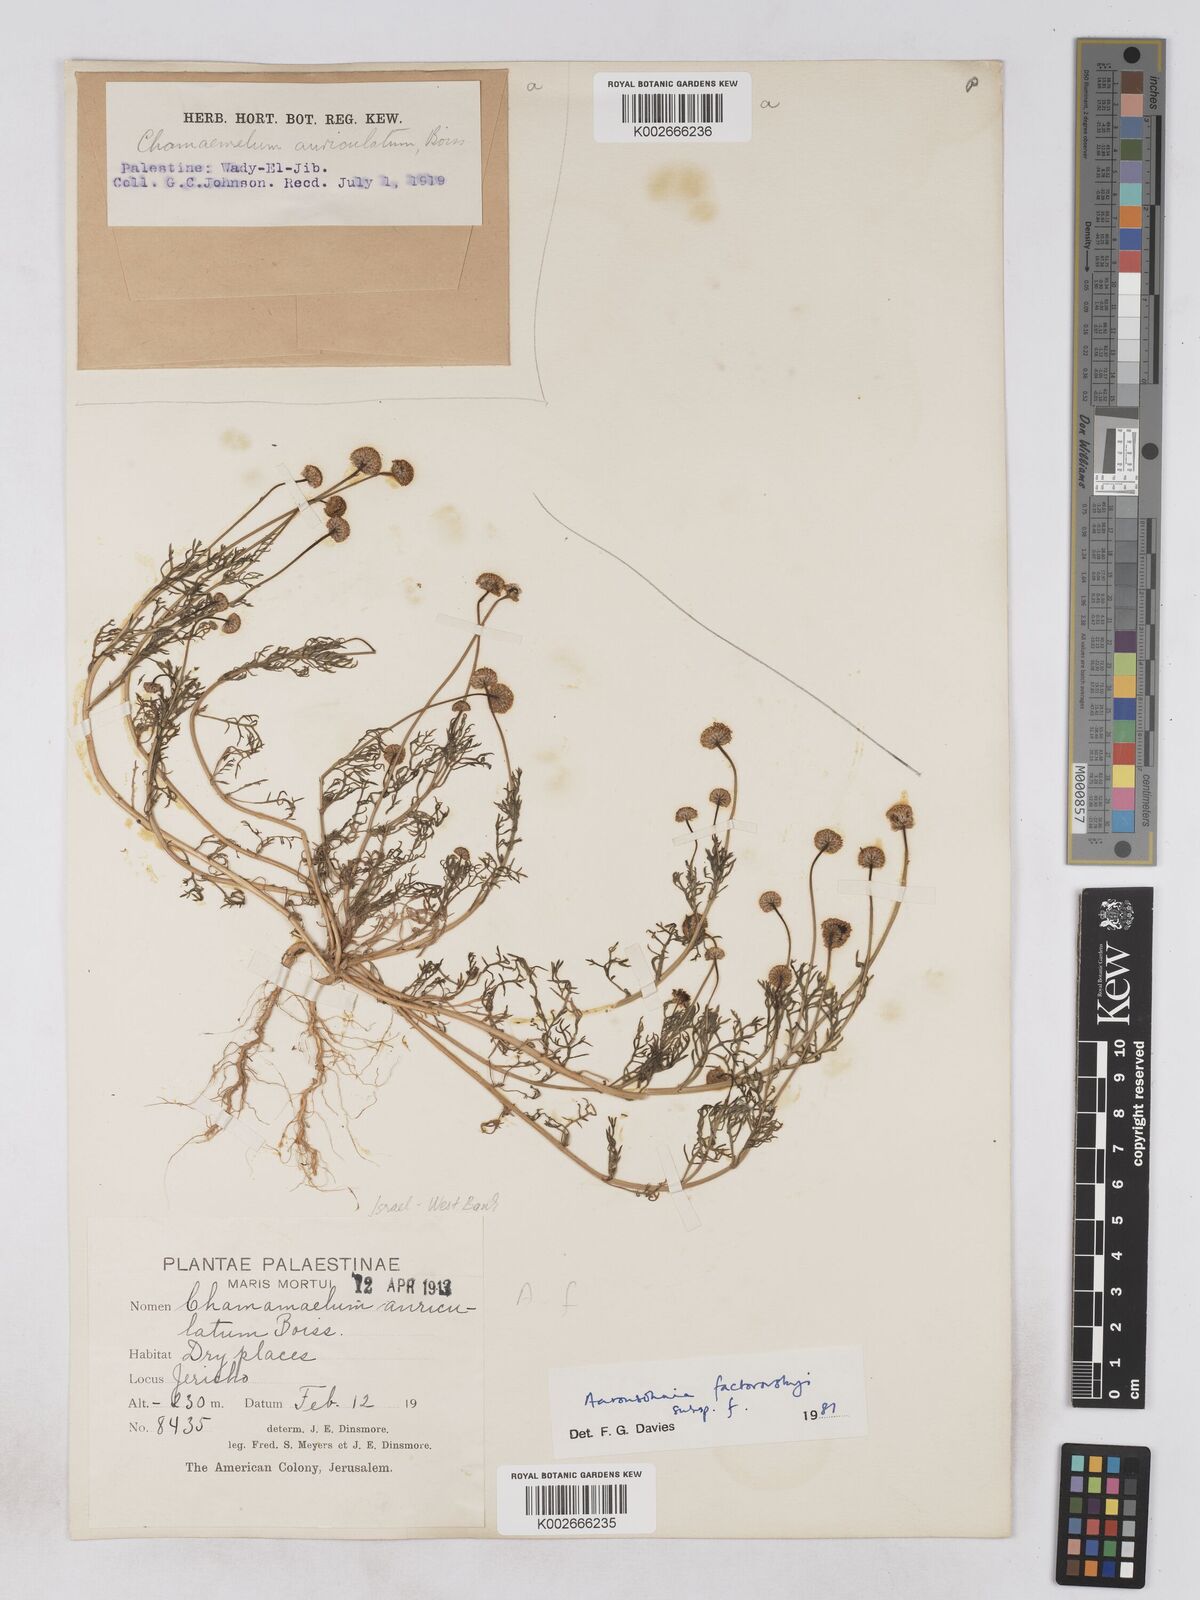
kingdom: Plantae
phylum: Tracheophyta
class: Magnoliopsida
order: Asterales
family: Asteraceae
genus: Otoglyphis
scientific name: Otoglyphis factorovskyi
